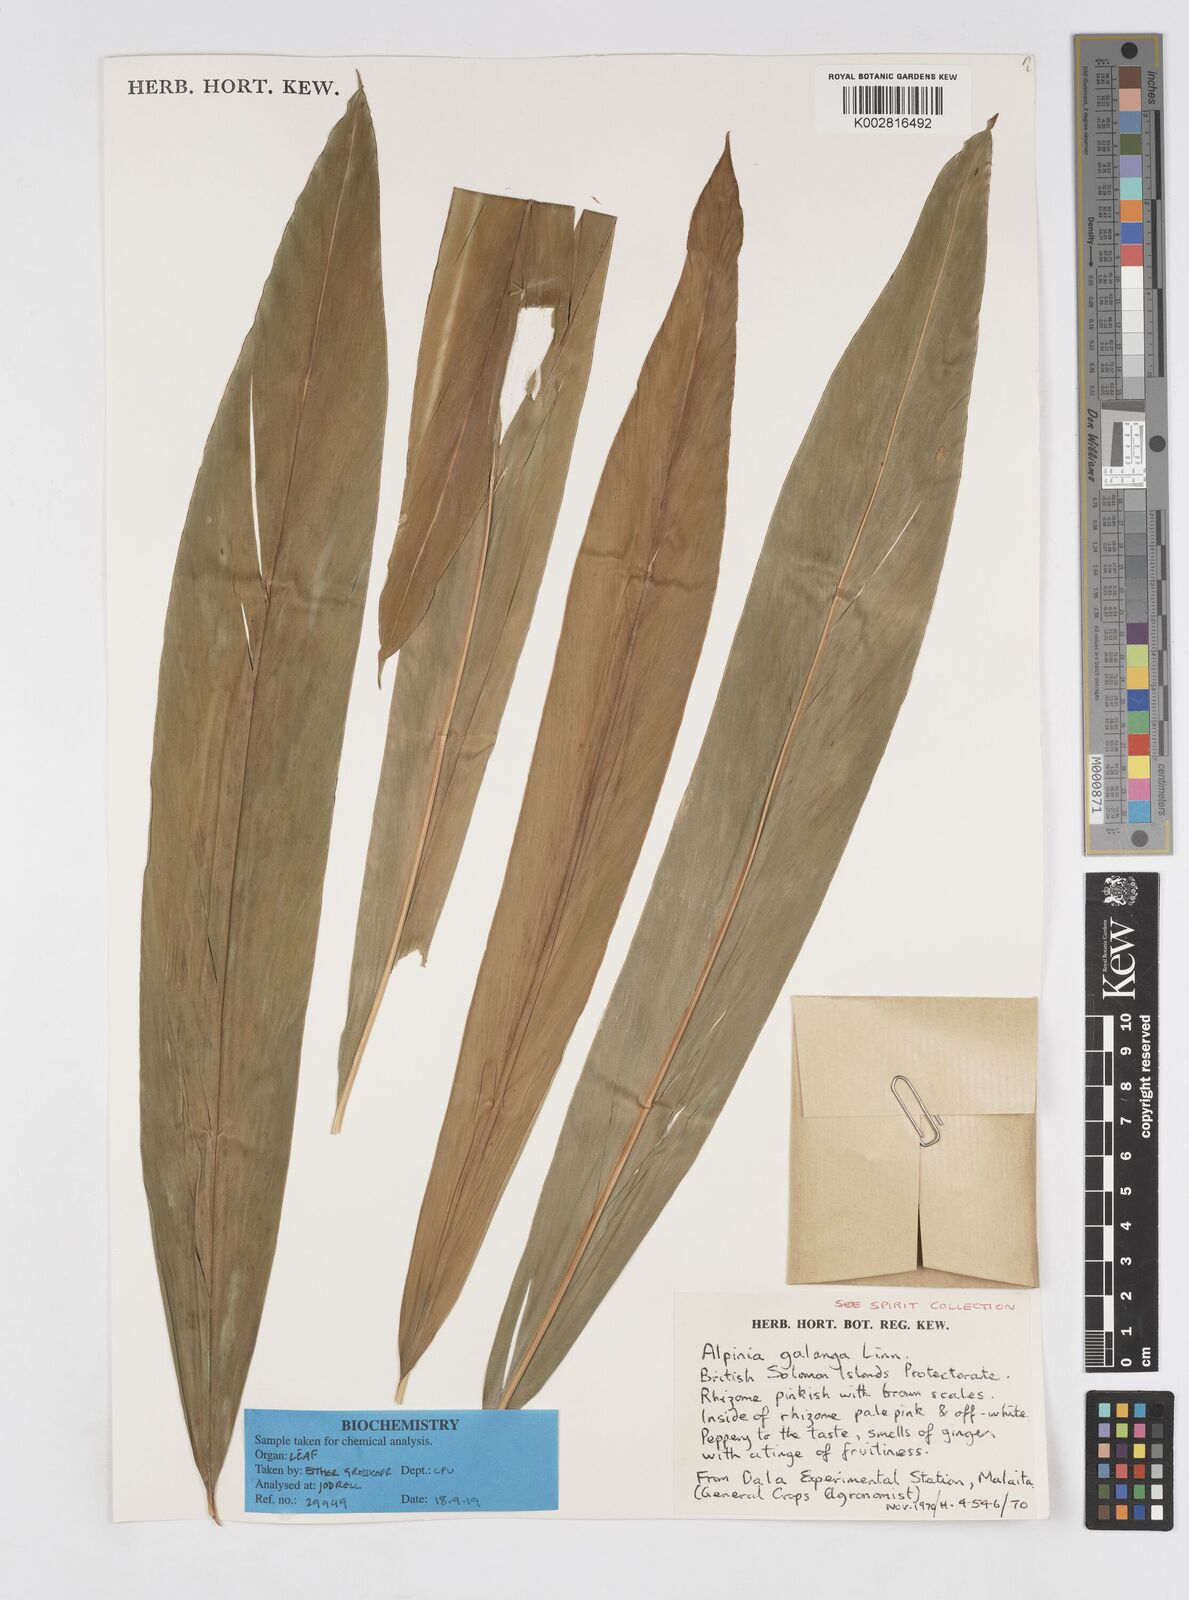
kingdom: Plantae
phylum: Tracheophyta
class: Liliopsida
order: Zingiberales
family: Zingiberaceae
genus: Alpinia
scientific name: Alpinia galanga
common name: Siamese-ginger
